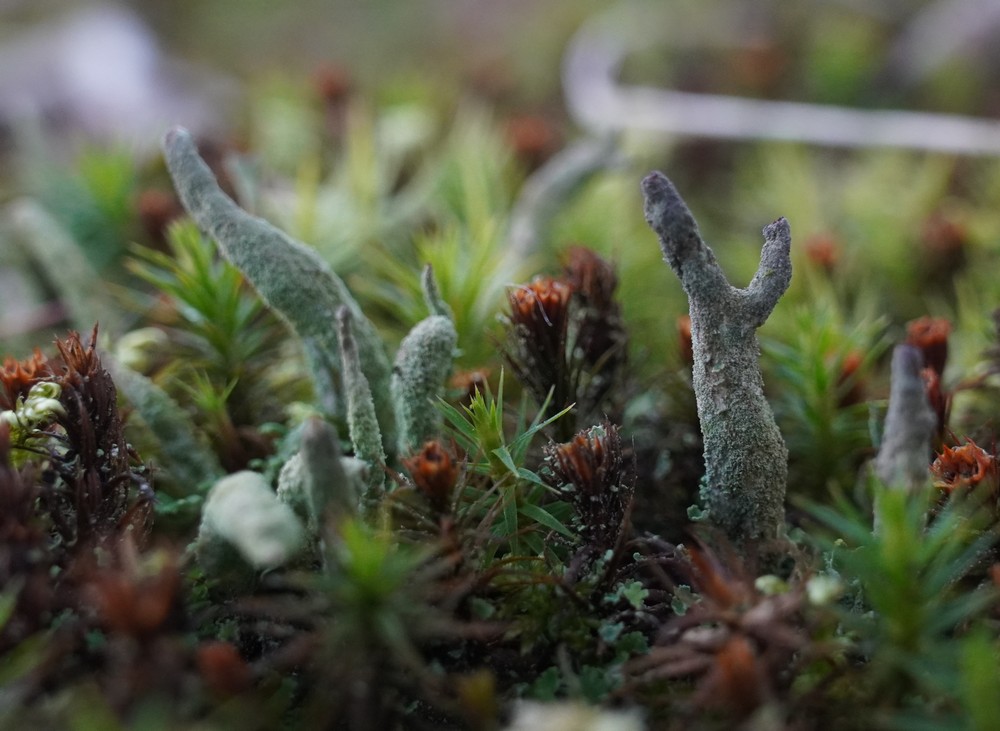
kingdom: Fungi
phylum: Ascomycota
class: Lecanoromycetes
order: Lecanorales
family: Cladoniaceae
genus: Cladonia
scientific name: Cladonia coniocraea
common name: træfods-bægerlav
